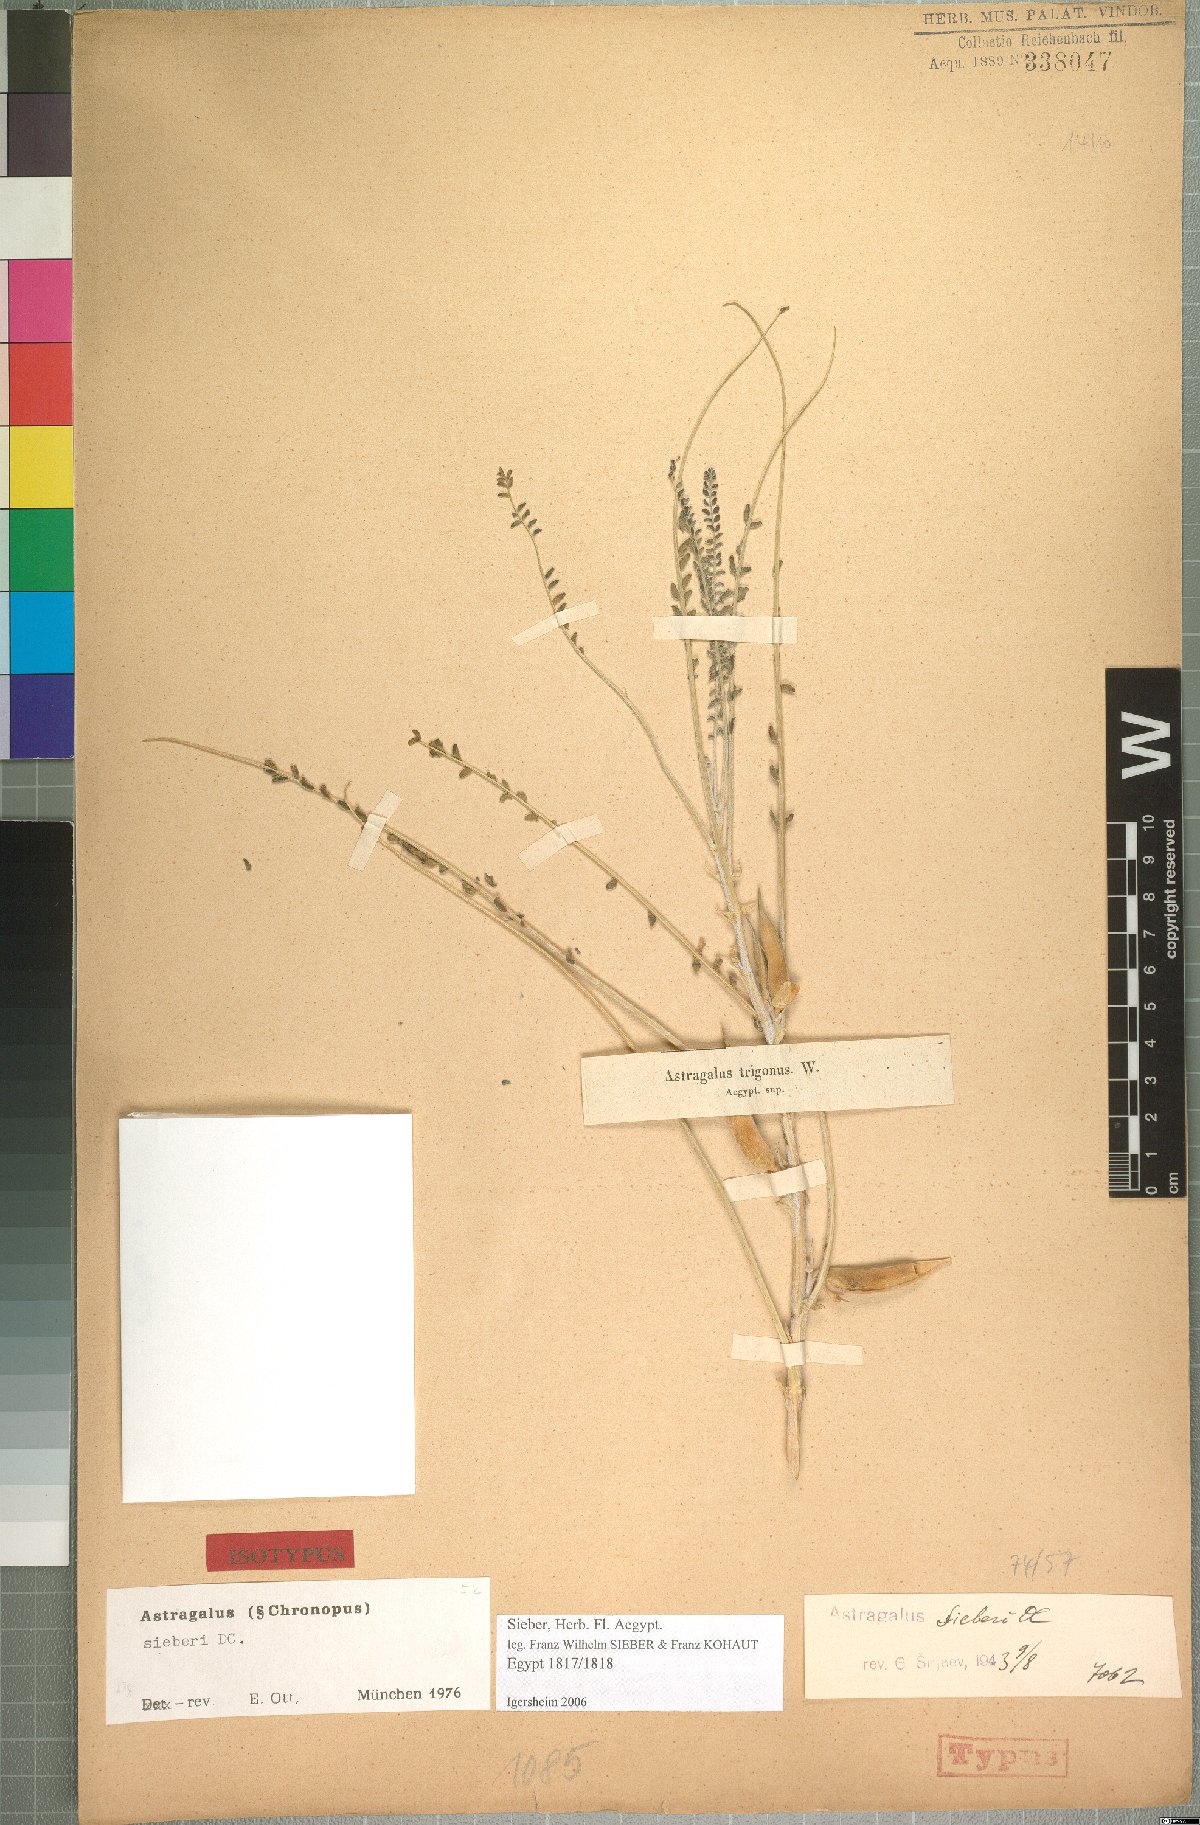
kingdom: Plantae
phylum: Tracheophyta
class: Magnoliopsida
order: Fabales
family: Fabaceae
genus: Astragalus
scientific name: Astragalus sieberi
